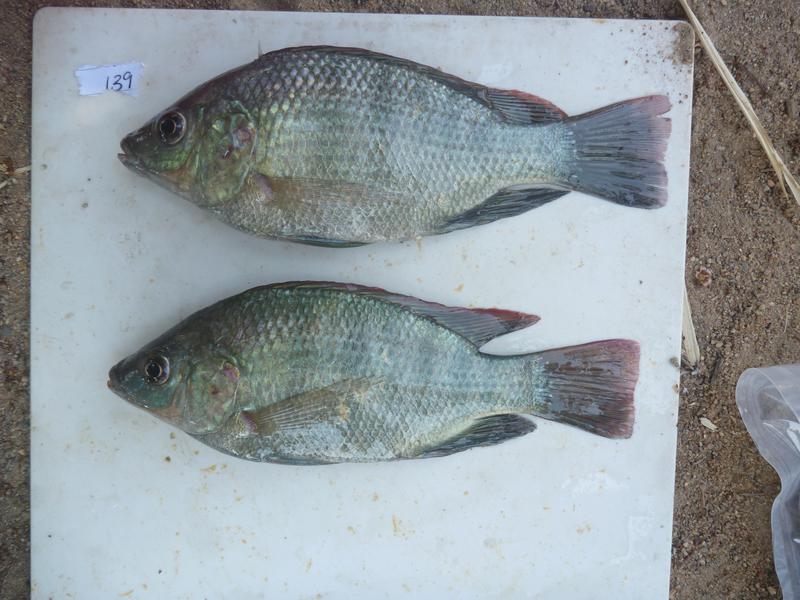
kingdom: Animalia
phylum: Chordata
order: Perciformes
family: Cichlidae
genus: Oreochromis
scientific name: Oreochromis
